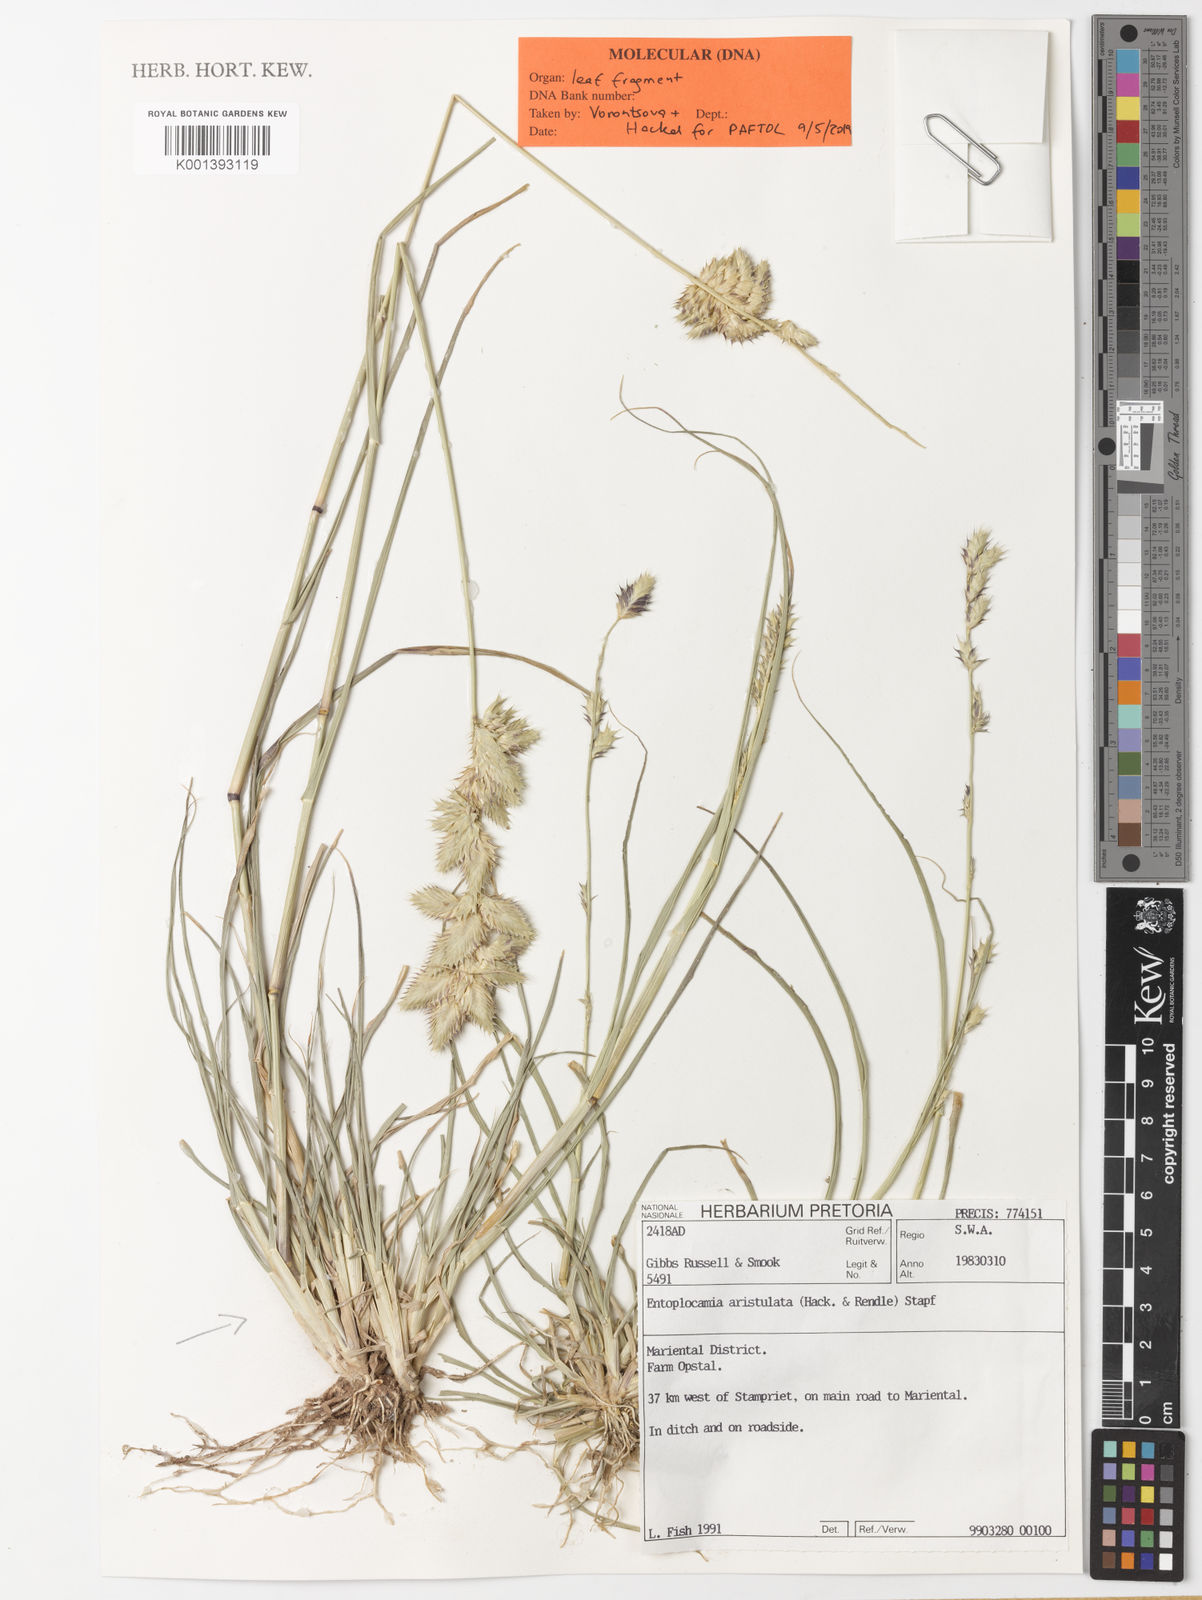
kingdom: Plantae
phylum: Tracheophyta
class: Liliopsida
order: Poales
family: Poaceae
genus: Entoplocamia
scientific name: Entoplocamia aristulata
